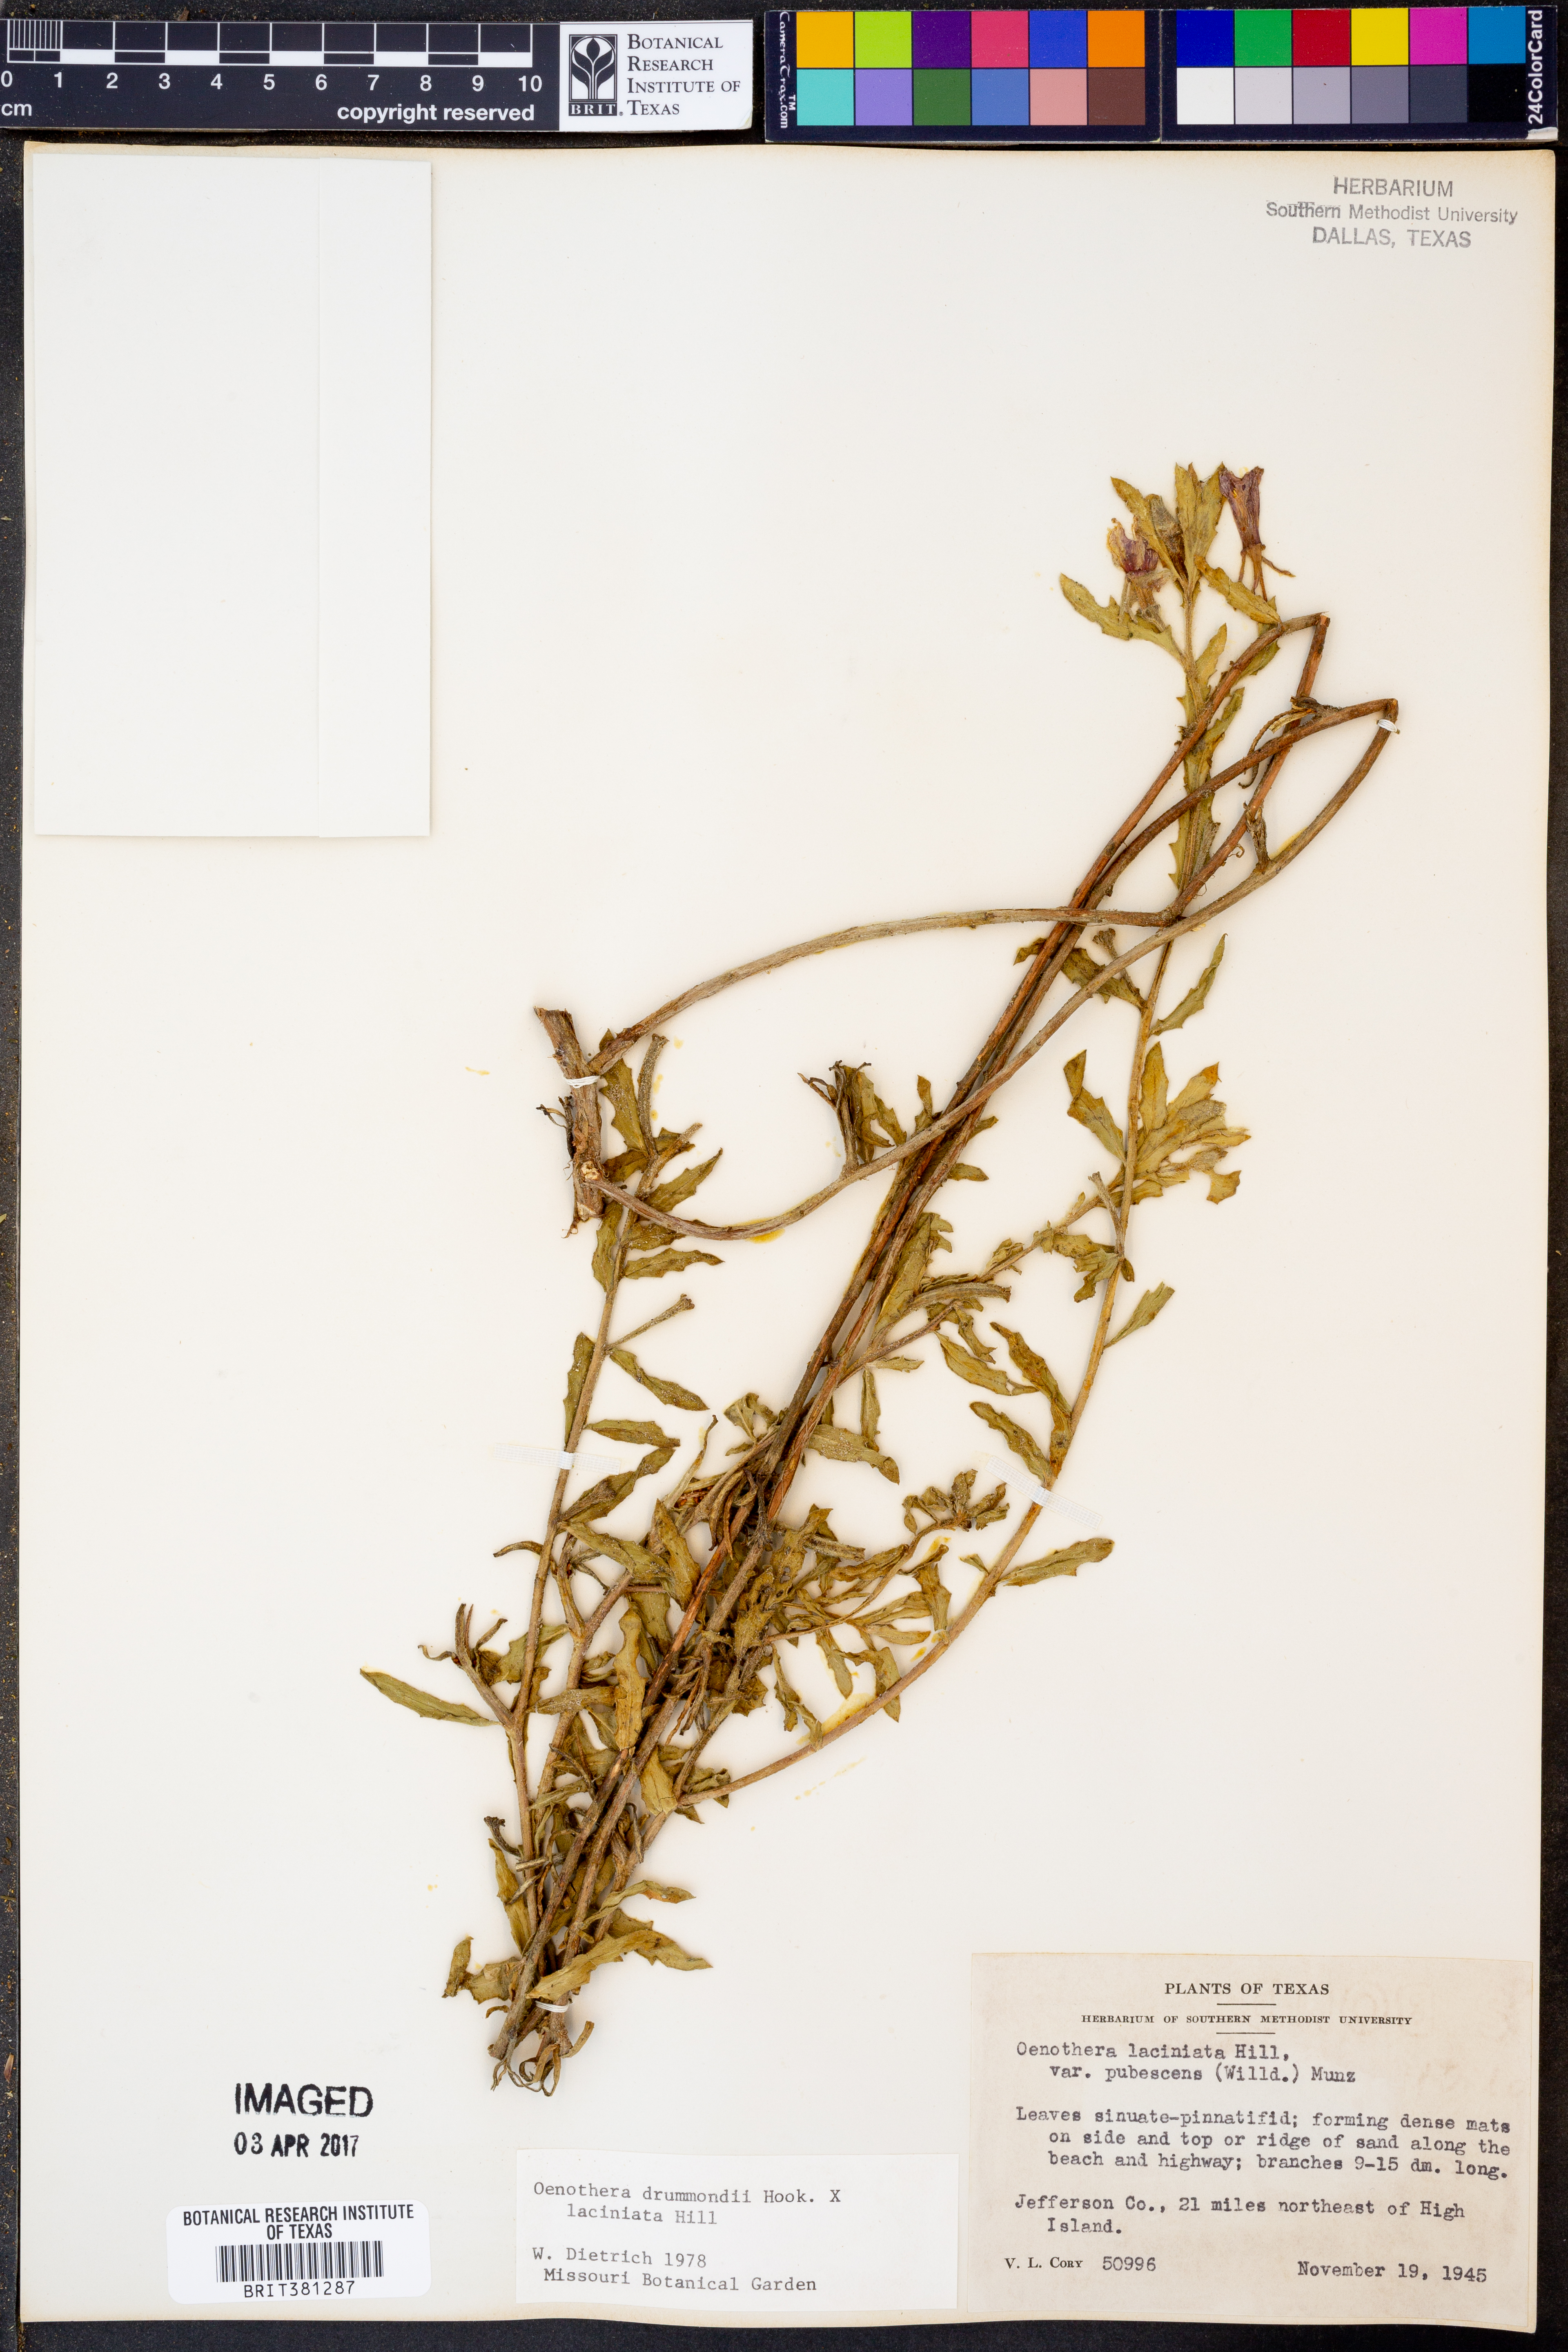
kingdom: Plantae
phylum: Tracheophyta
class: Magnoliopsida
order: Myrtales
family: Onagraceae
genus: Oenothera
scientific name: Oenothera drummondii
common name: Beach evening-primrose
